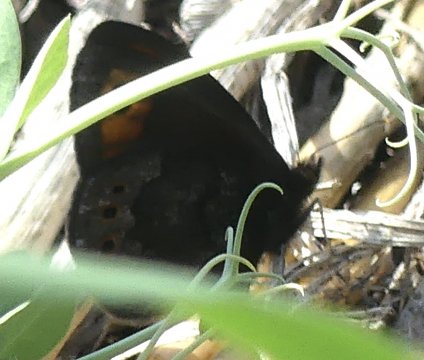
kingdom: Animalia
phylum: Arthropoda
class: Insecta
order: Lepidoptera
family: Nymphalidae
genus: Erebia
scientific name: Erebia epipsodea
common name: Common Alpine
